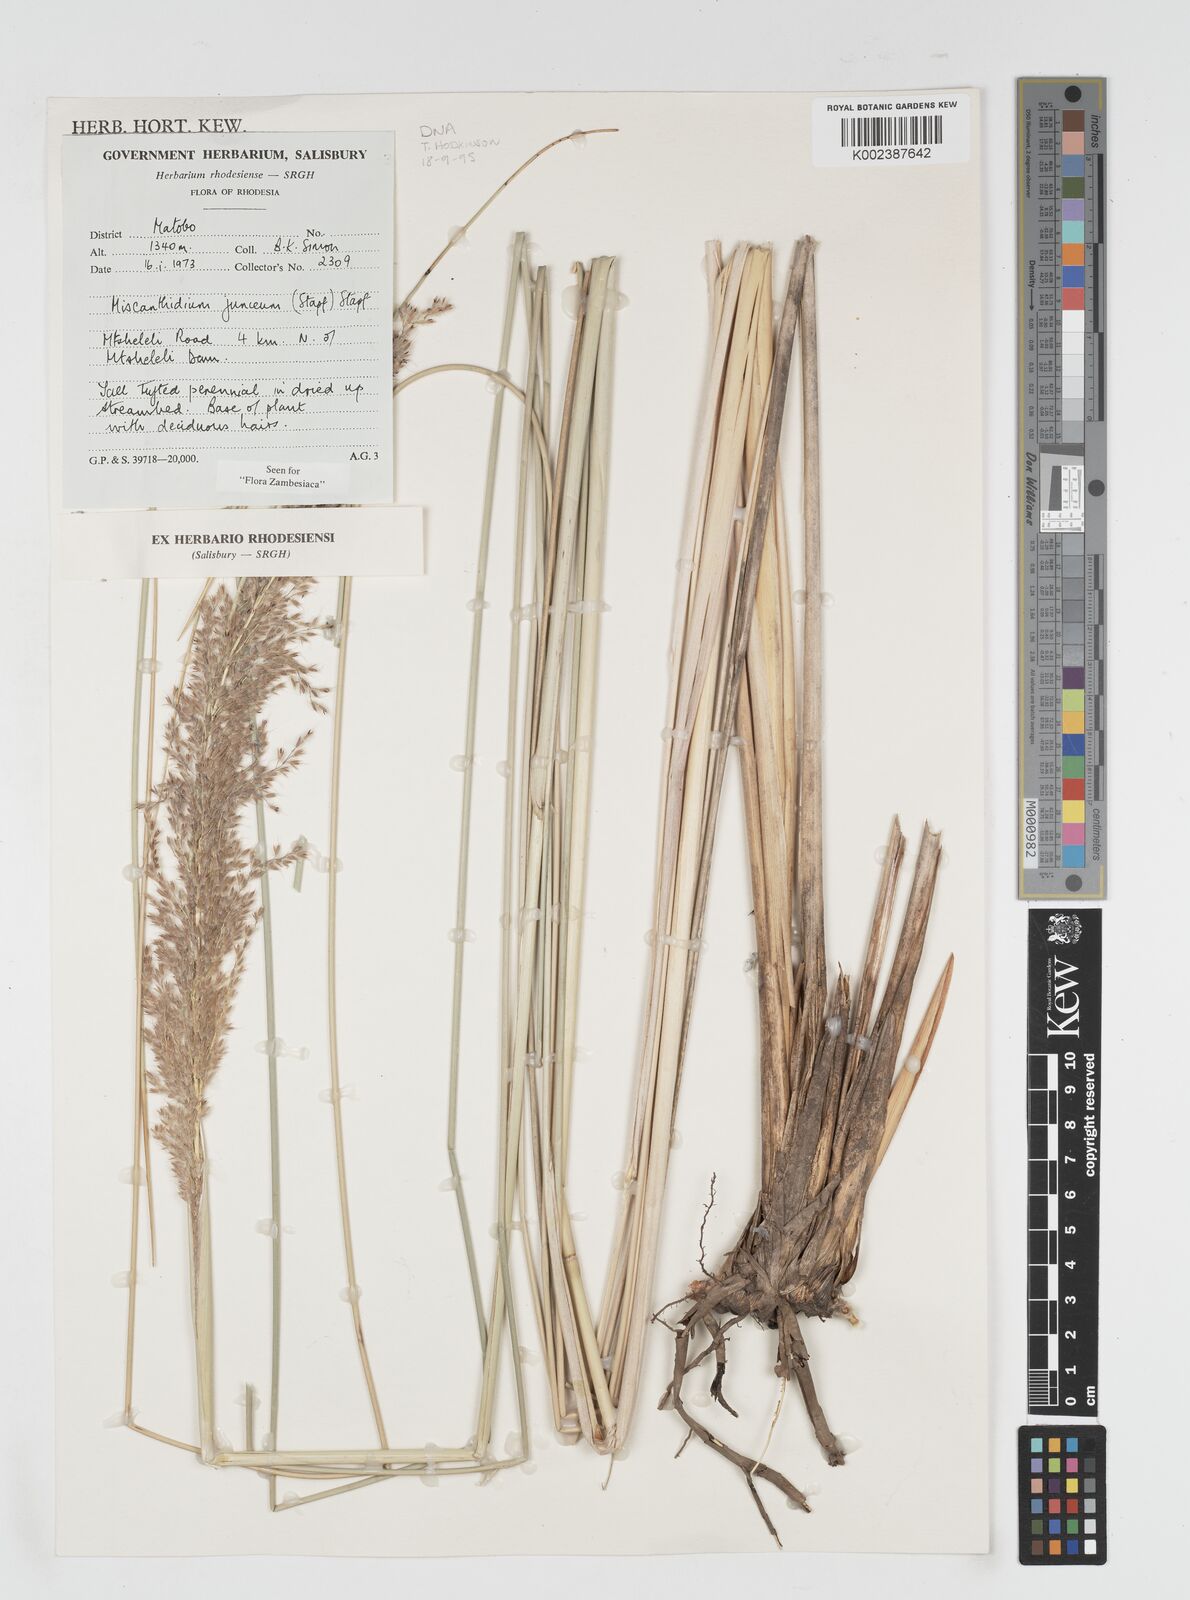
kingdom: Plantae
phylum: Tracheophyta
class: Liliopsida
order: Poales
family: Poaceae
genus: Miscanthidium
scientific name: Miscanthidium junceum
